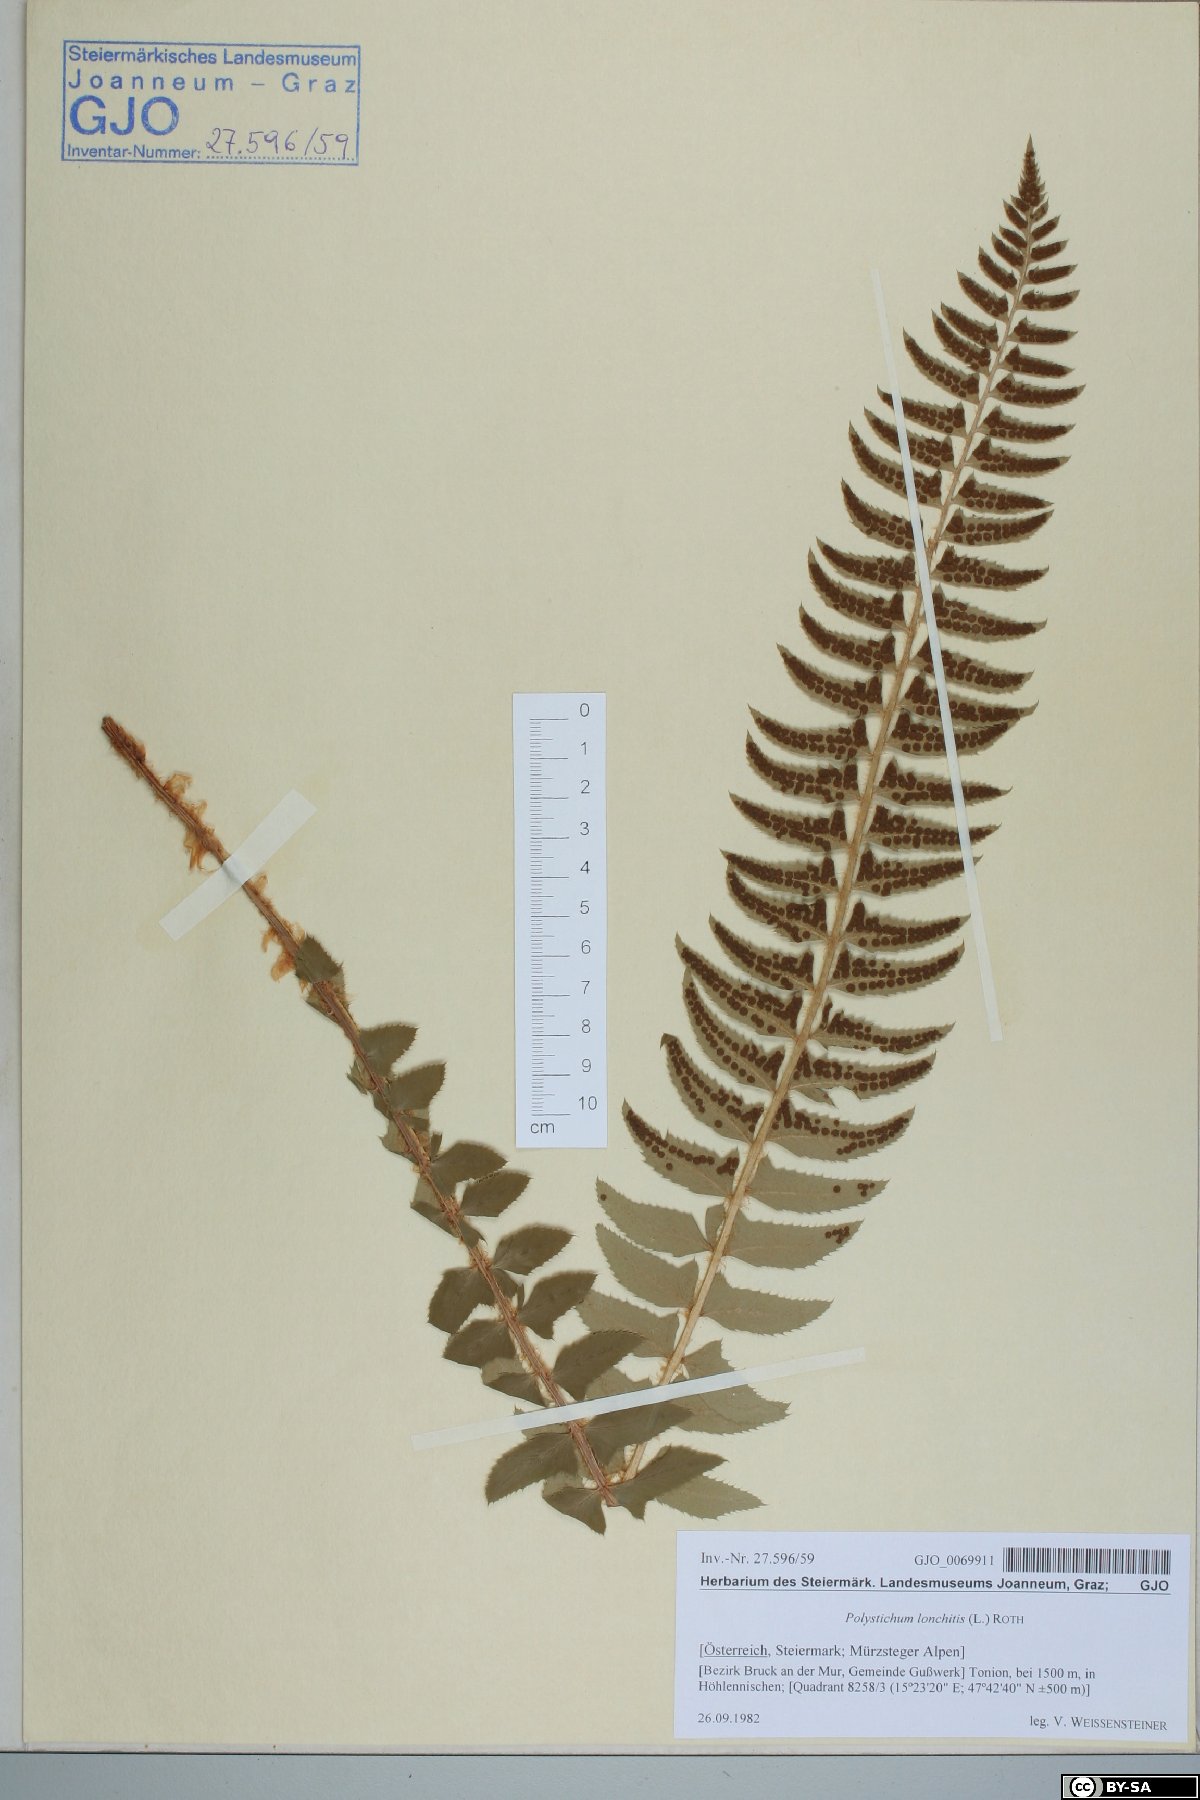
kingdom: Plantae
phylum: Tracheophyta
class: Polypodiopsida
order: Polypodiales
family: Dryopteridaceae
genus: Polystichum
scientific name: Polystichum lonchitis
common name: Holly fern
